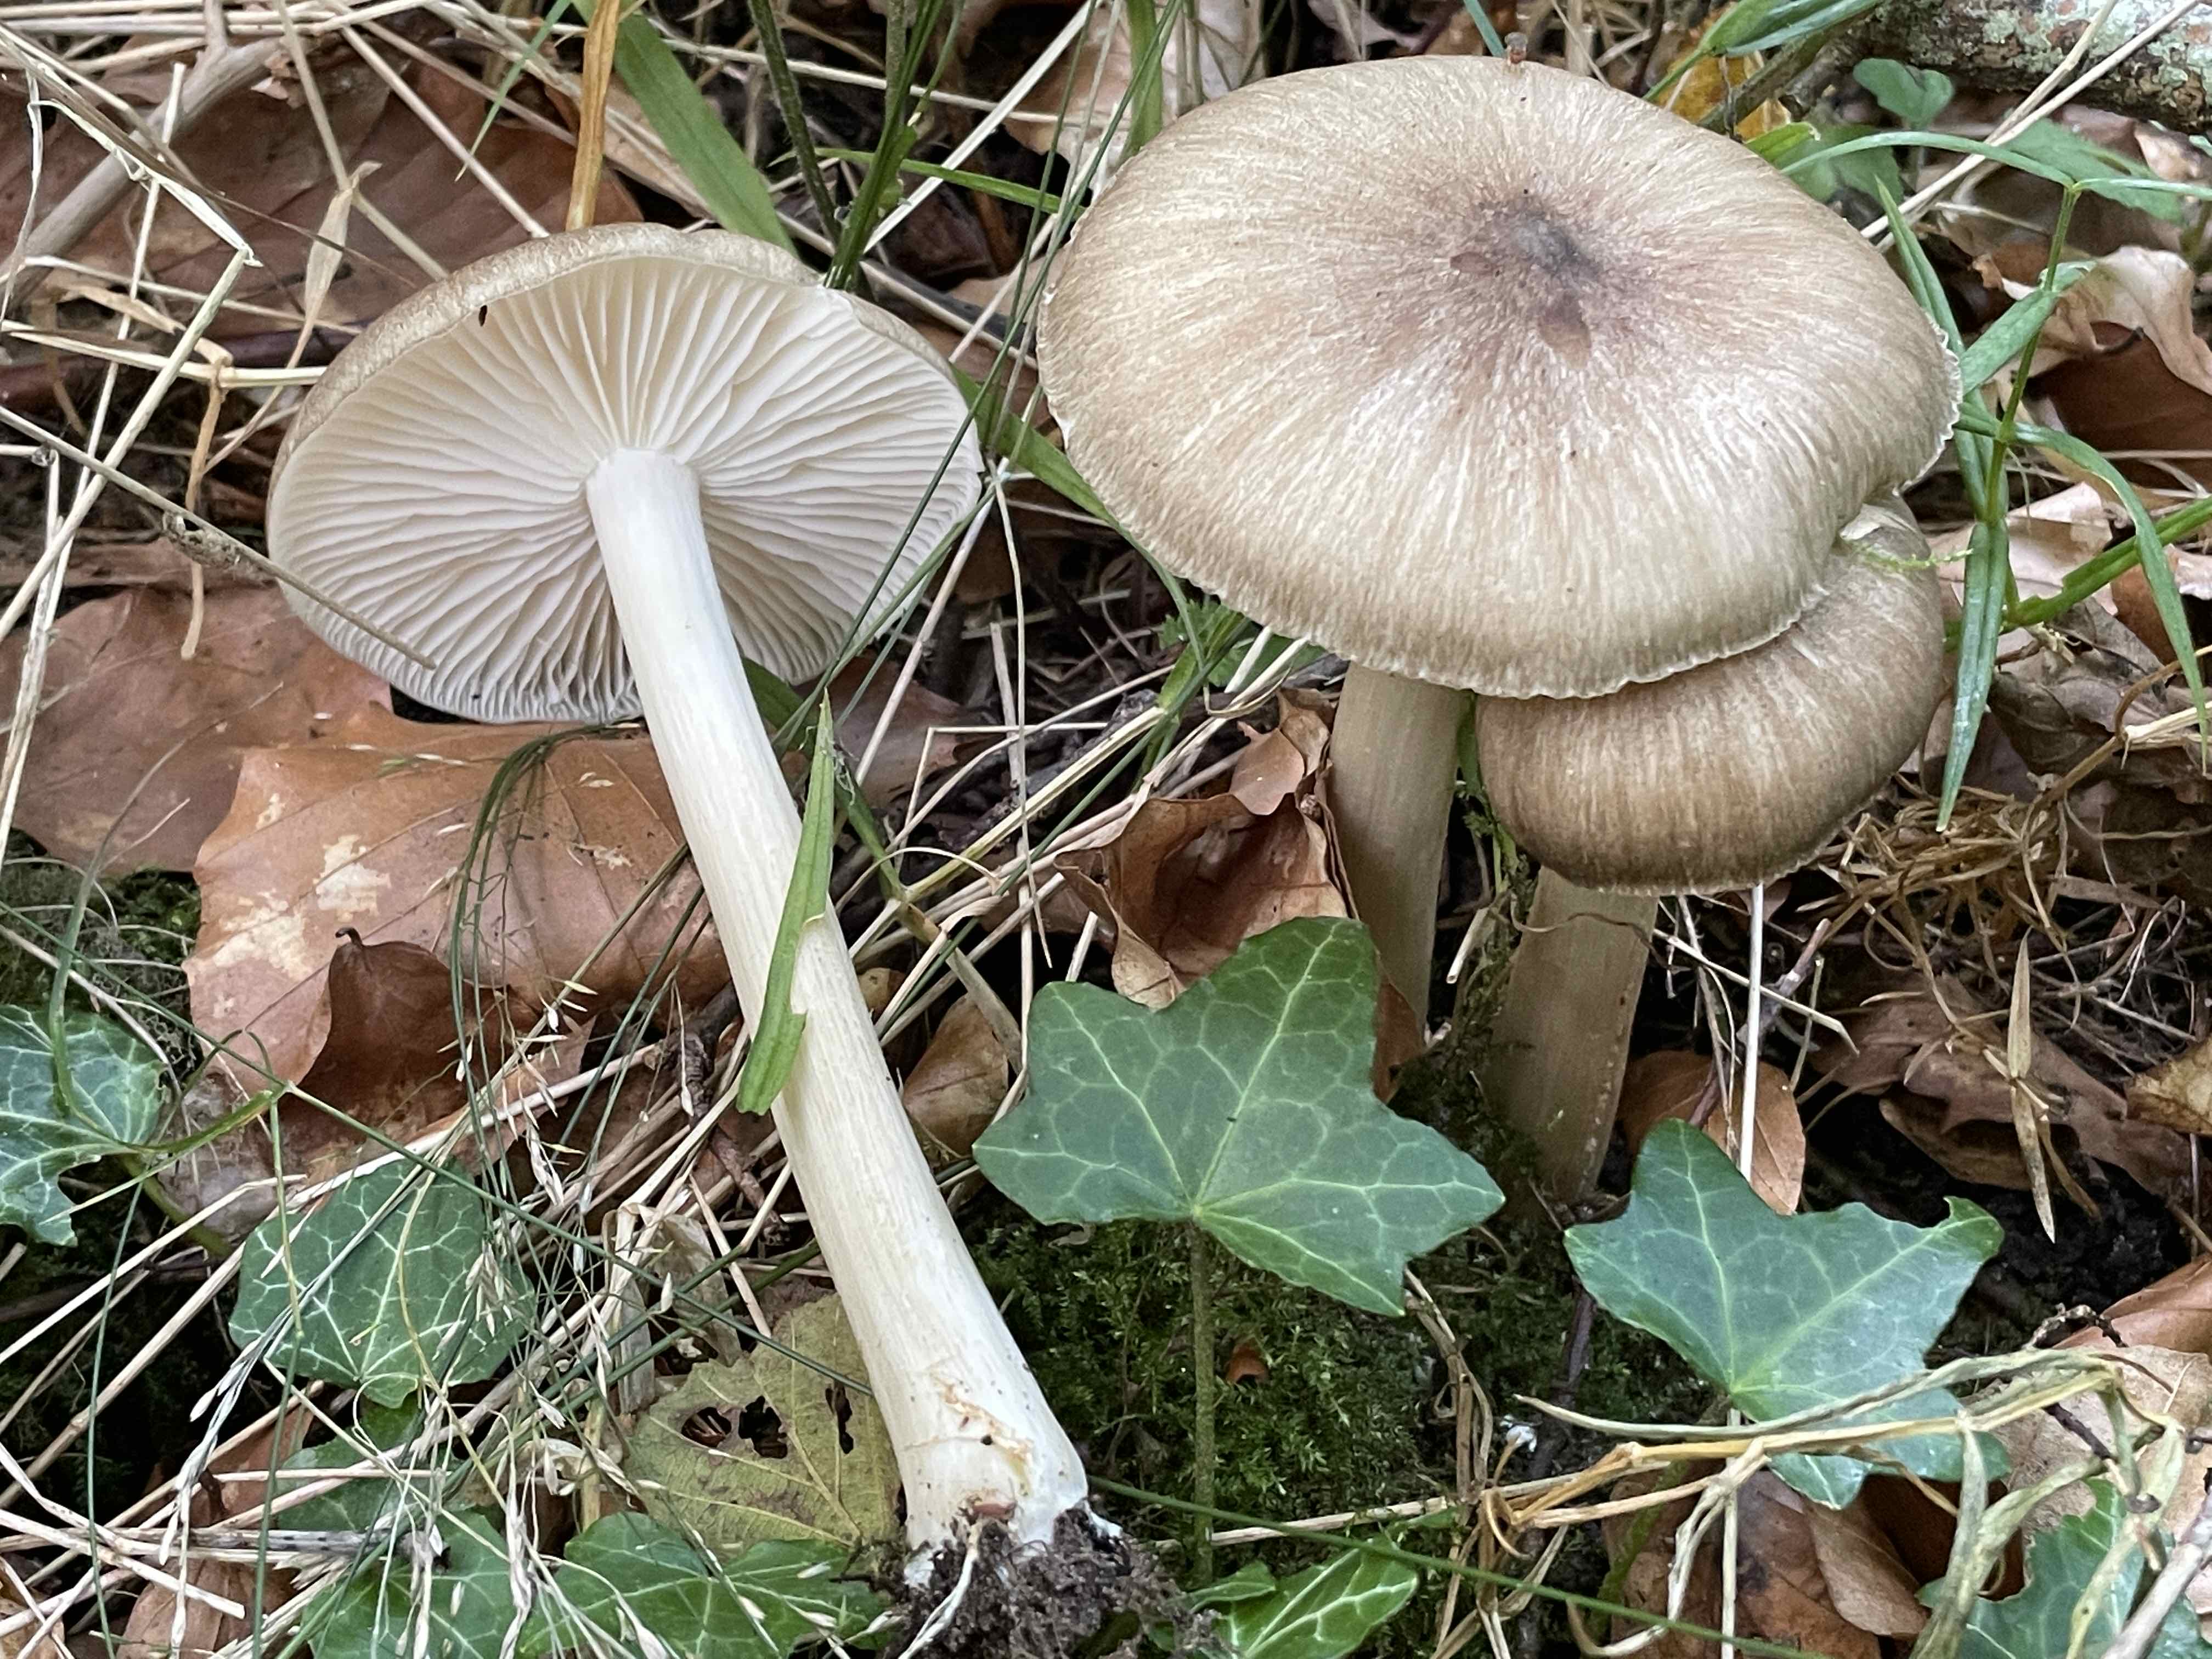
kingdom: Fungi
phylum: Basidiomycota
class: Agaricomycetes
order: Agaricales
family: Tricholomataceae
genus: Megacollybia
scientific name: Megacollybia platyphylla
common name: bredbladet væbnerhat
